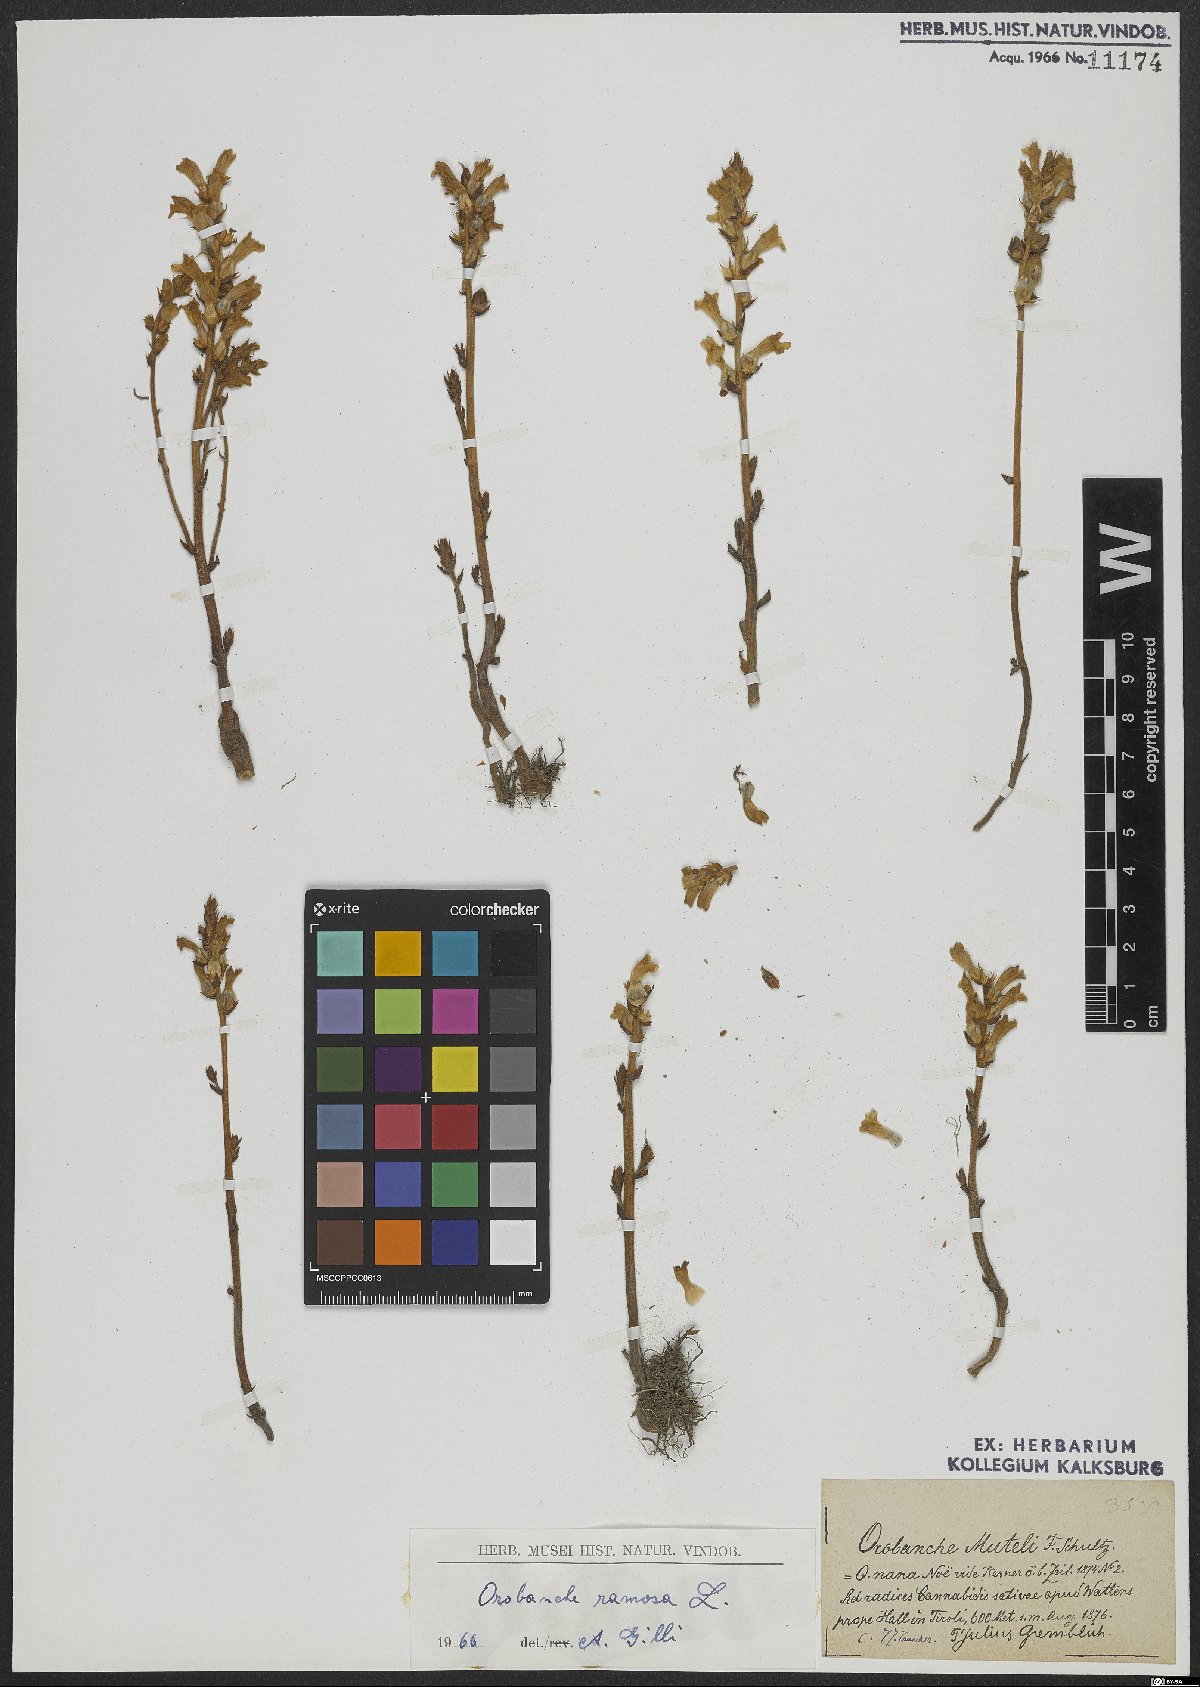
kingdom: Plantae
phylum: Tracheophyta
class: Magnoliopsida
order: Lamiales
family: Orobanchaceae
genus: Phelipanche
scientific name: Phelipanche ramosa
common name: Branched broomrape
